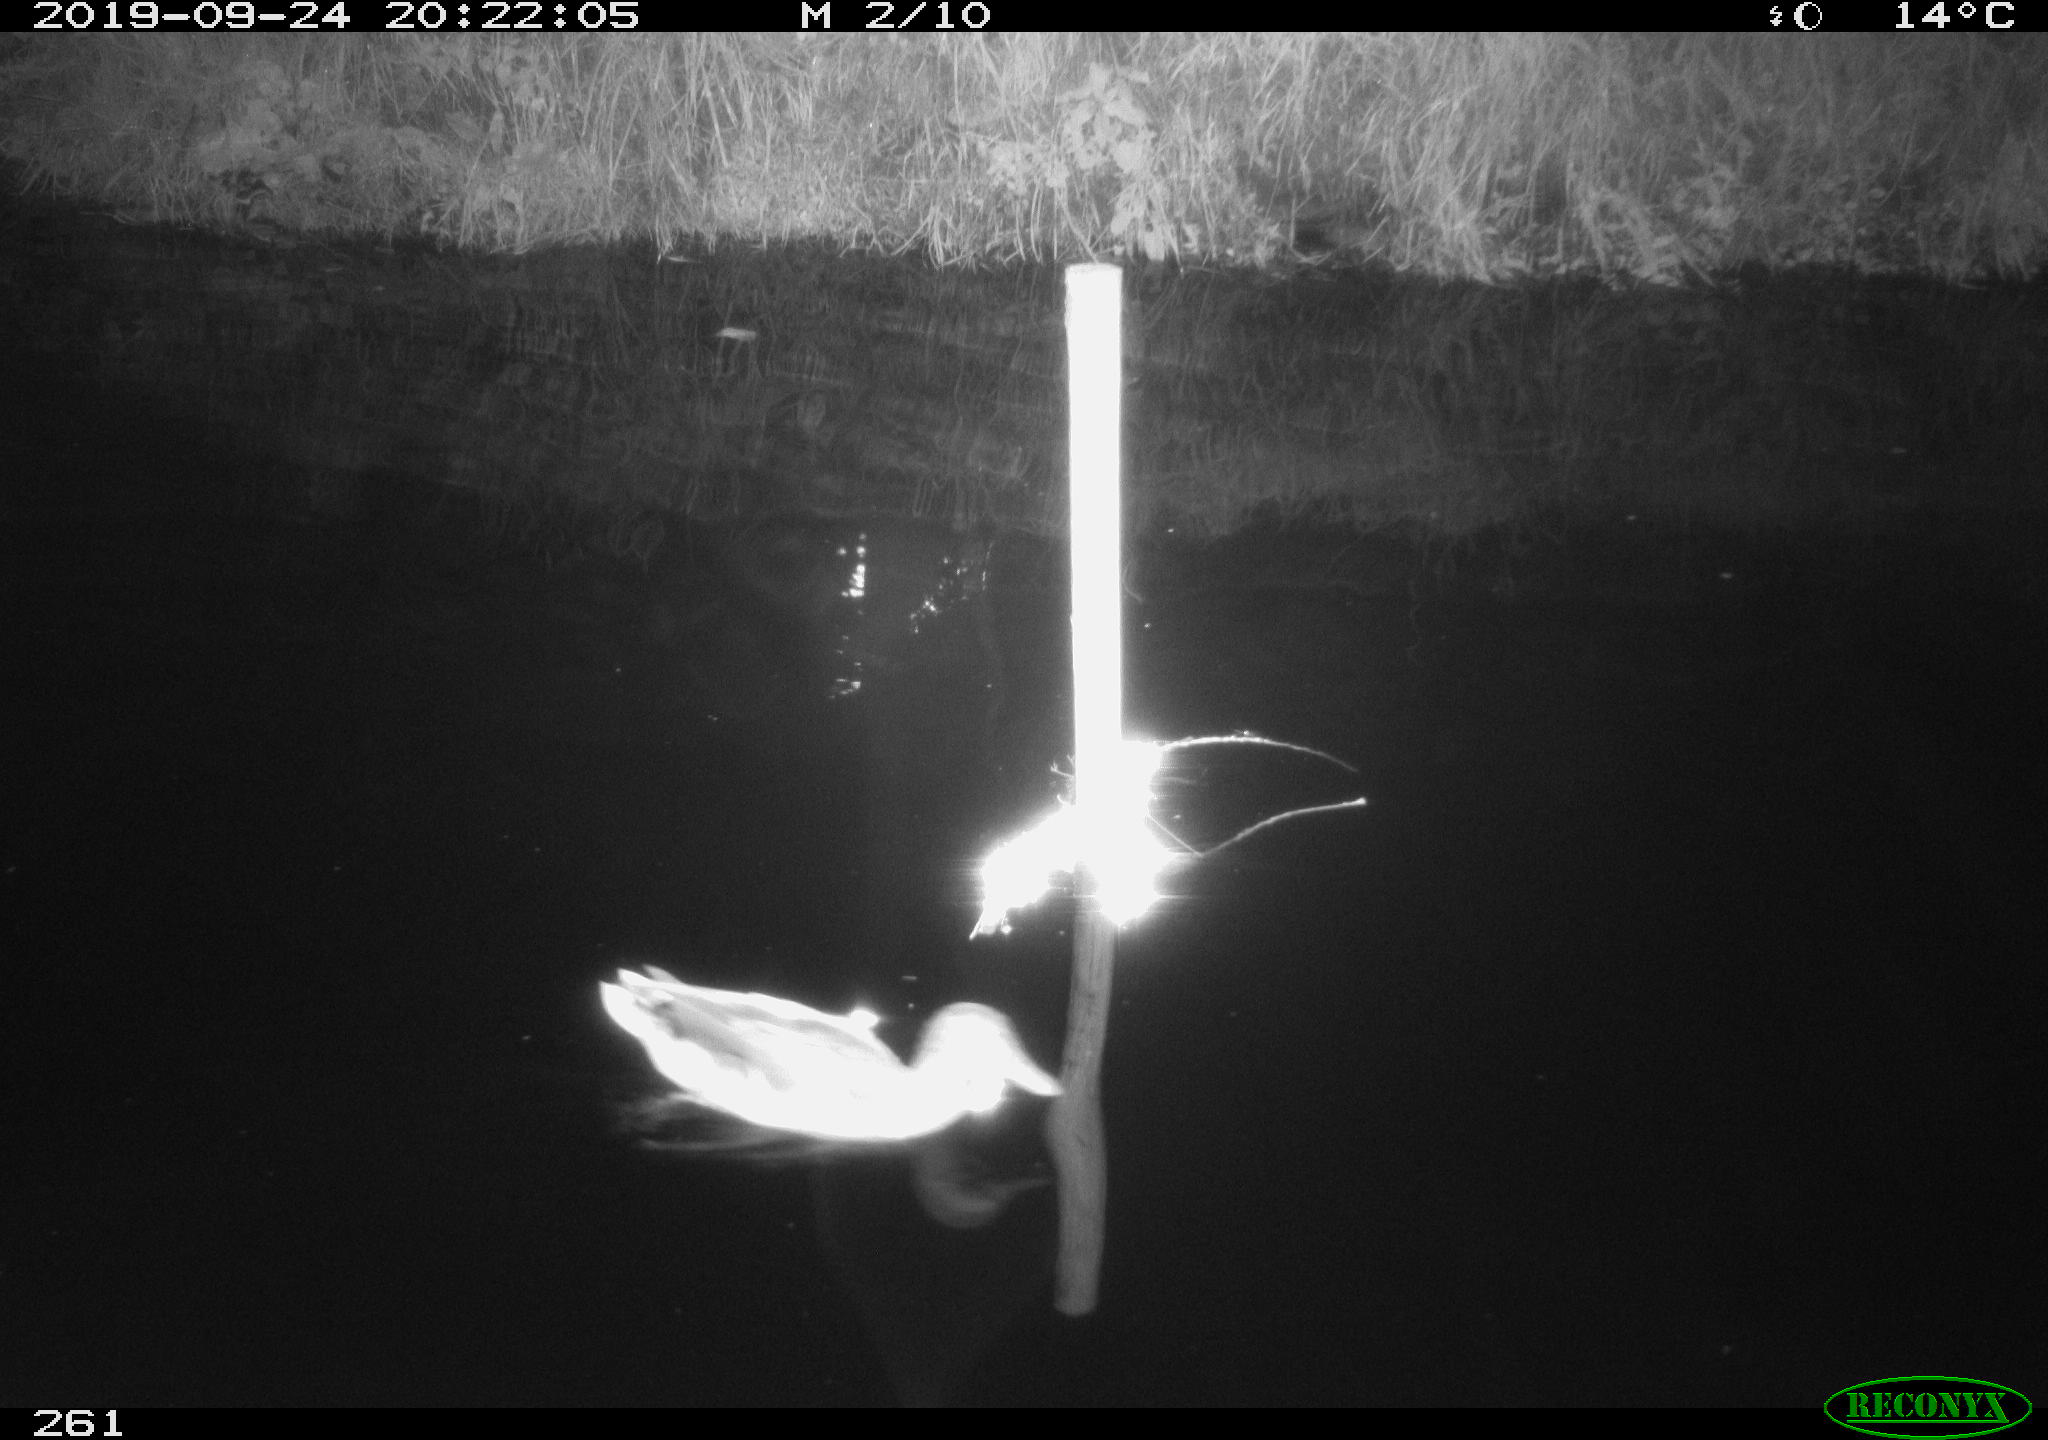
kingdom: Animalia
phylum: Chordata
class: Aves
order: Anseriformes
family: Anatidae
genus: Anas
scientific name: Anas platyrhynchos
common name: Mallard
